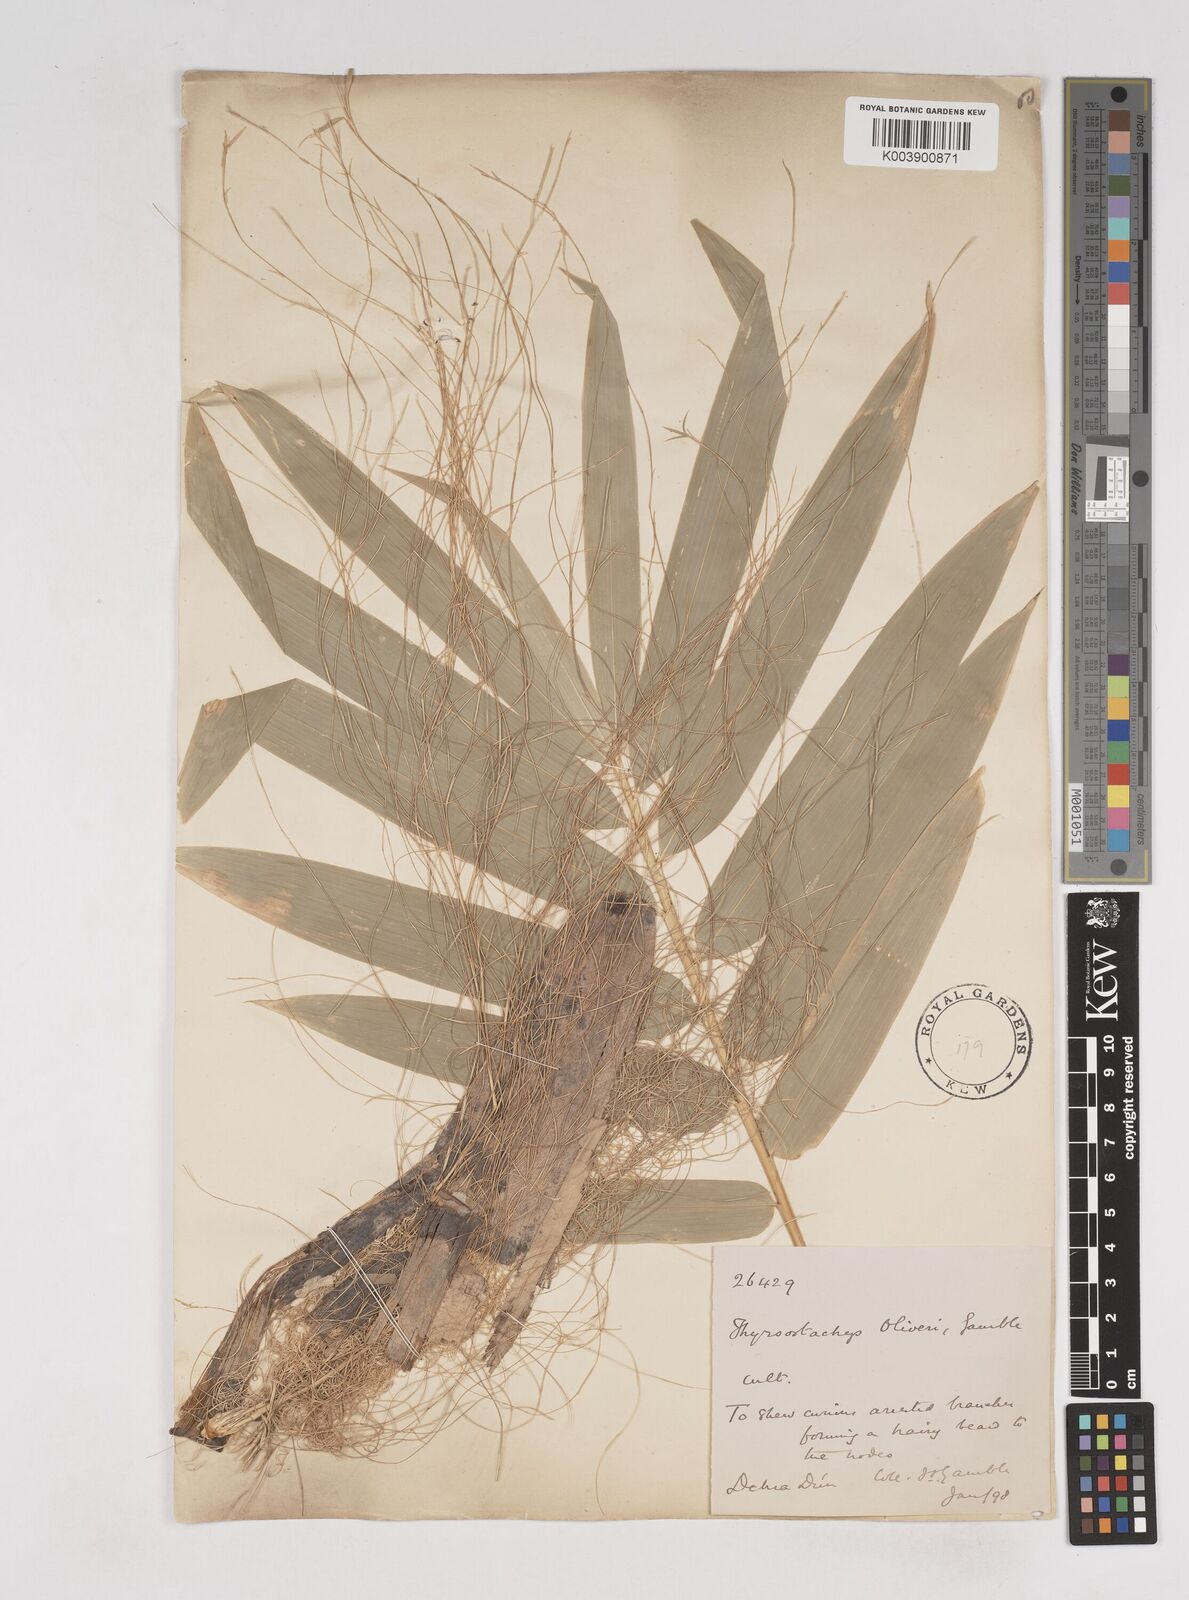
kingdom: Plantae
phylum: Tracheophyta
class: Liliopsida
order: Poales
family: Poaceae
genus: Thyrsostachys
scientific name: Thyrsostachys oliveri
